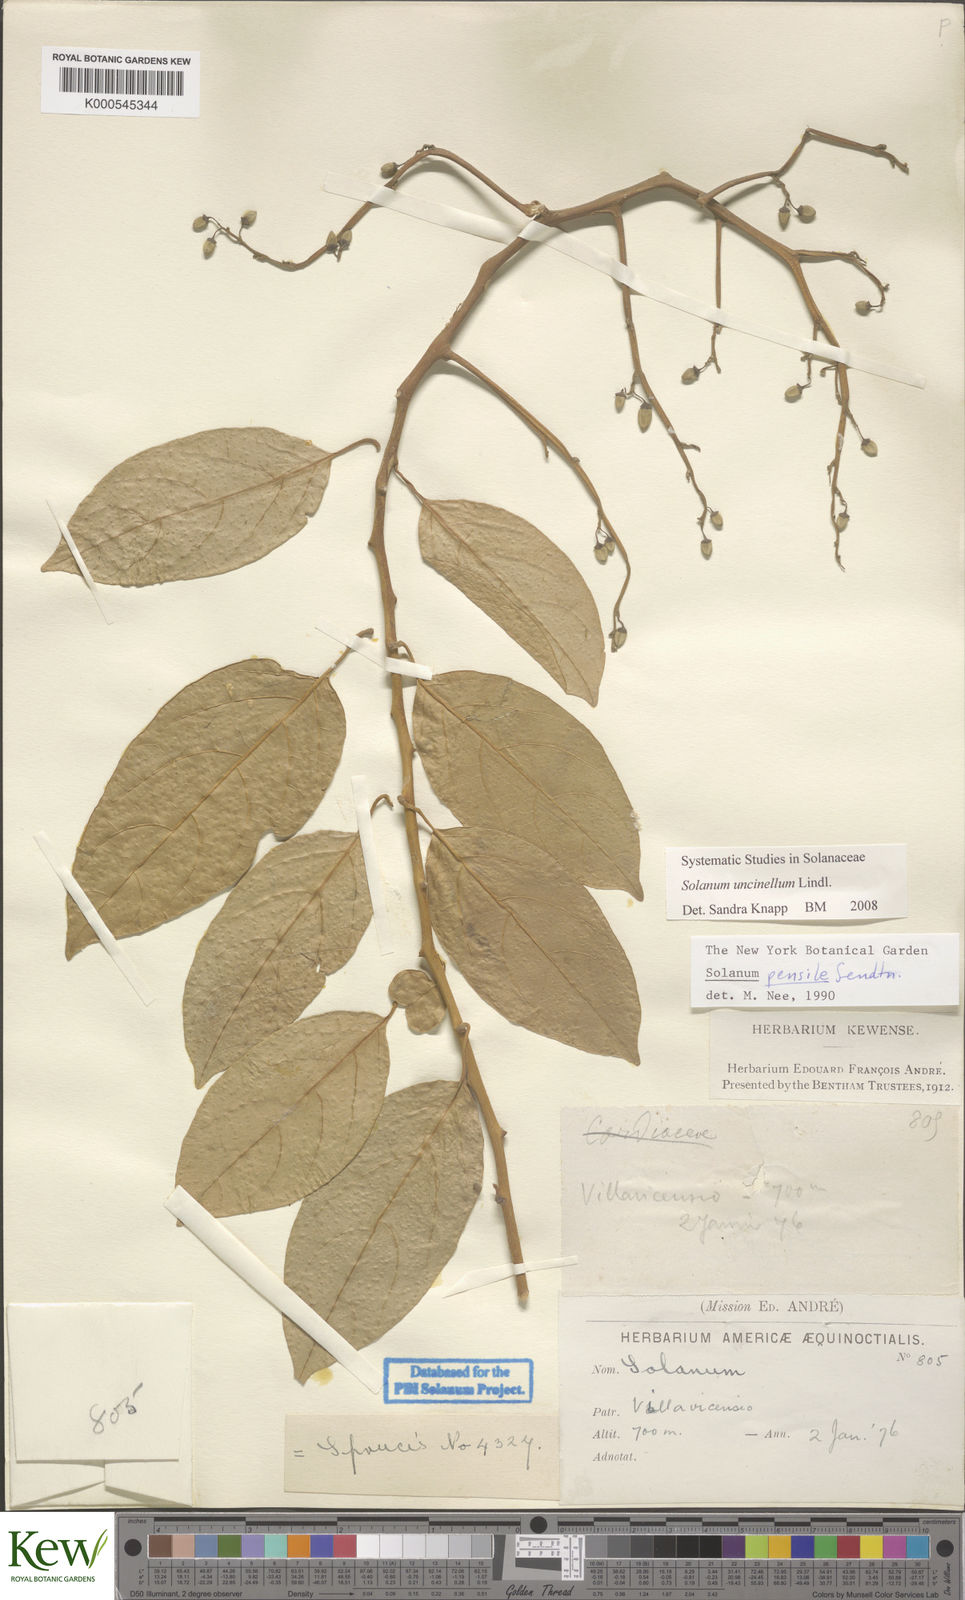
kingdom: Plantae
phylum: Tracheophyta
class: Magnoliopsida
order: Solanales
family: Solanaceae
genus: Solanum
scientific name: Solanum uncinellum
